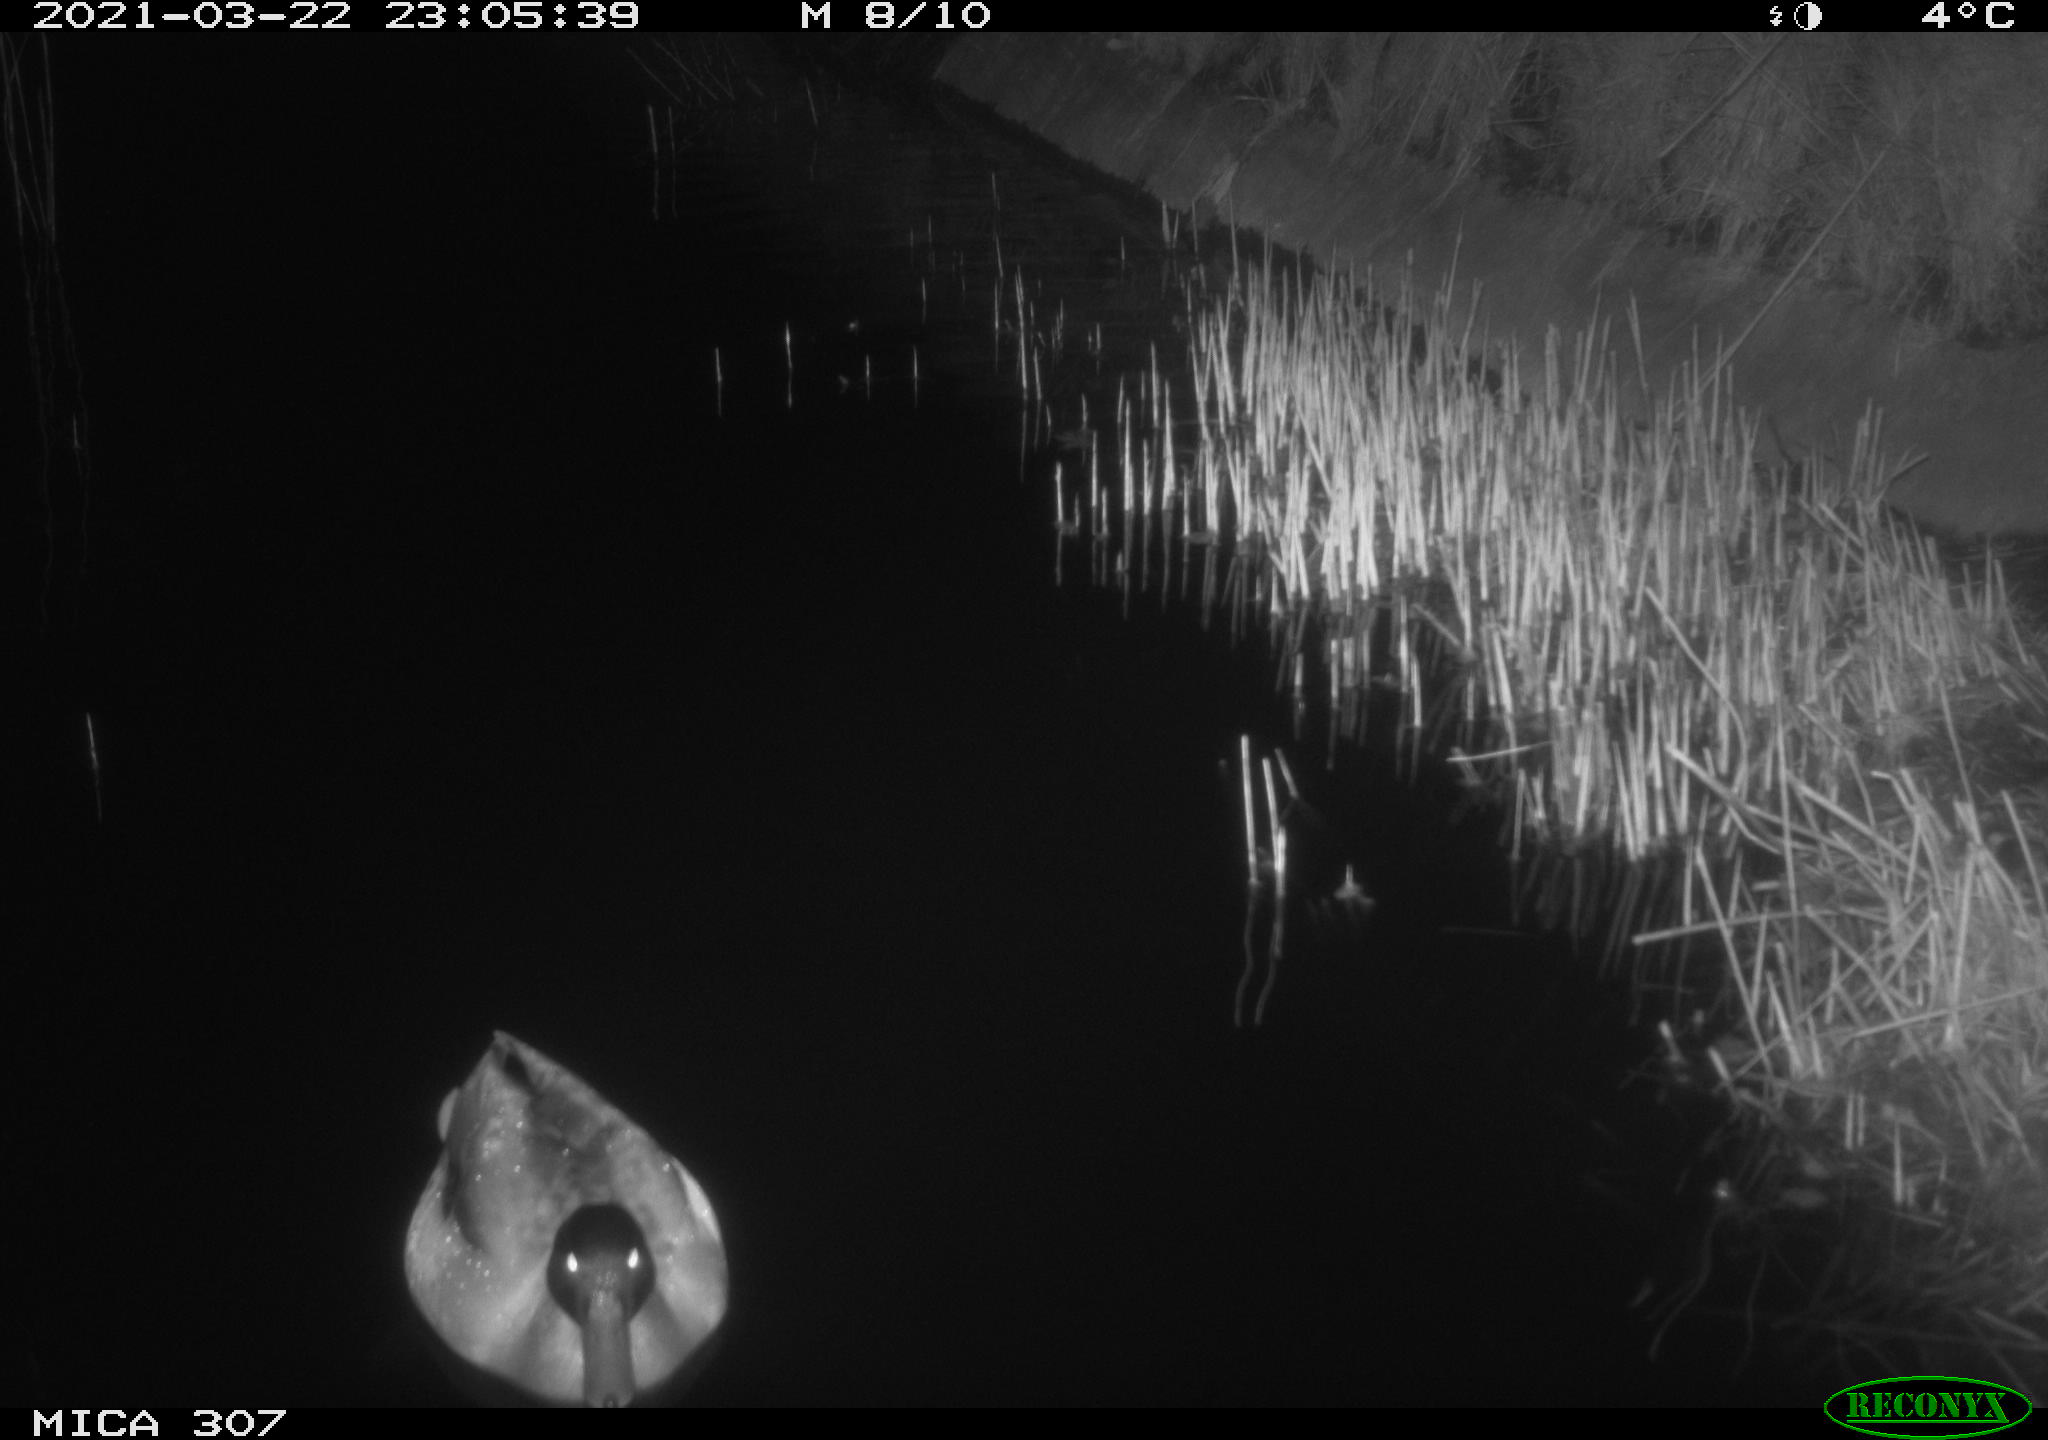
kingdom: Animalia
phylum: Chordata
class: Aves
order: Anseriformes
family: Anatidae
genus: Anas
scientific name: Anas platyrhynchos
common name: Mallard
